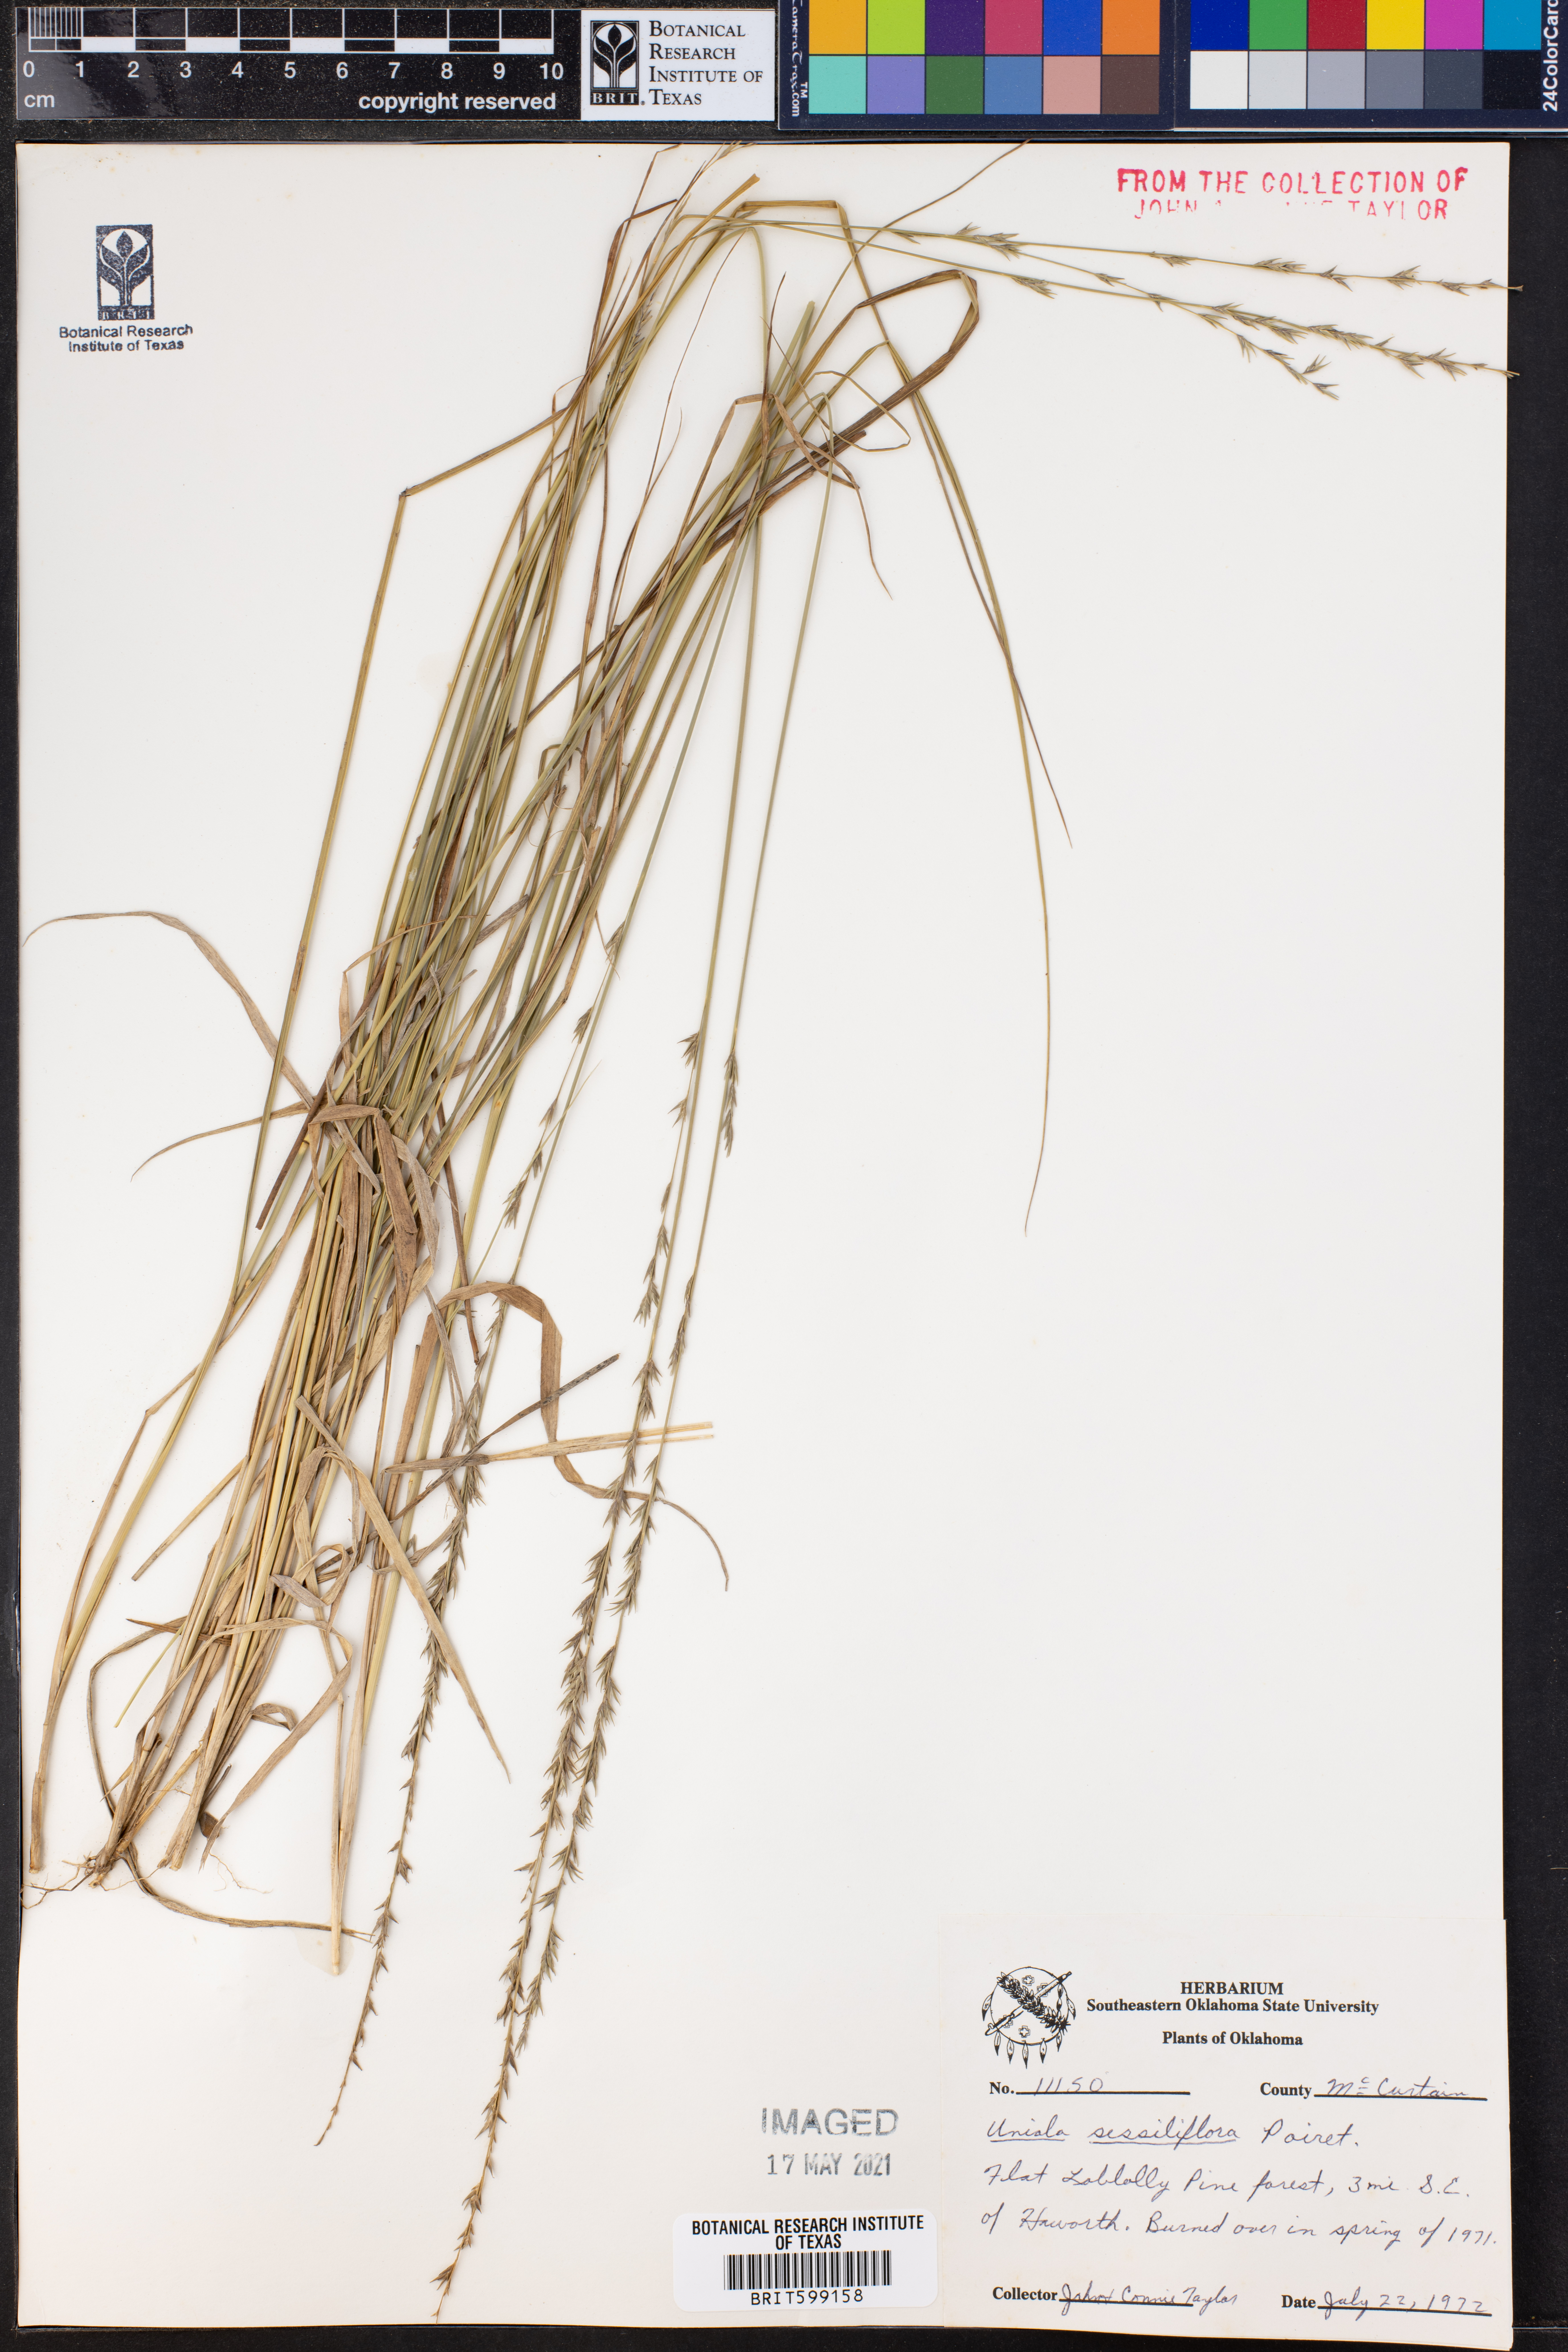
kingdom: Plantae
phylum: Tracheophyta
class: Liliopsida
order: Poales
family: Poaceae
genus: Chasmanthium
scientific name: Chasmanthium laxum
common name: Slender chasmanthium
